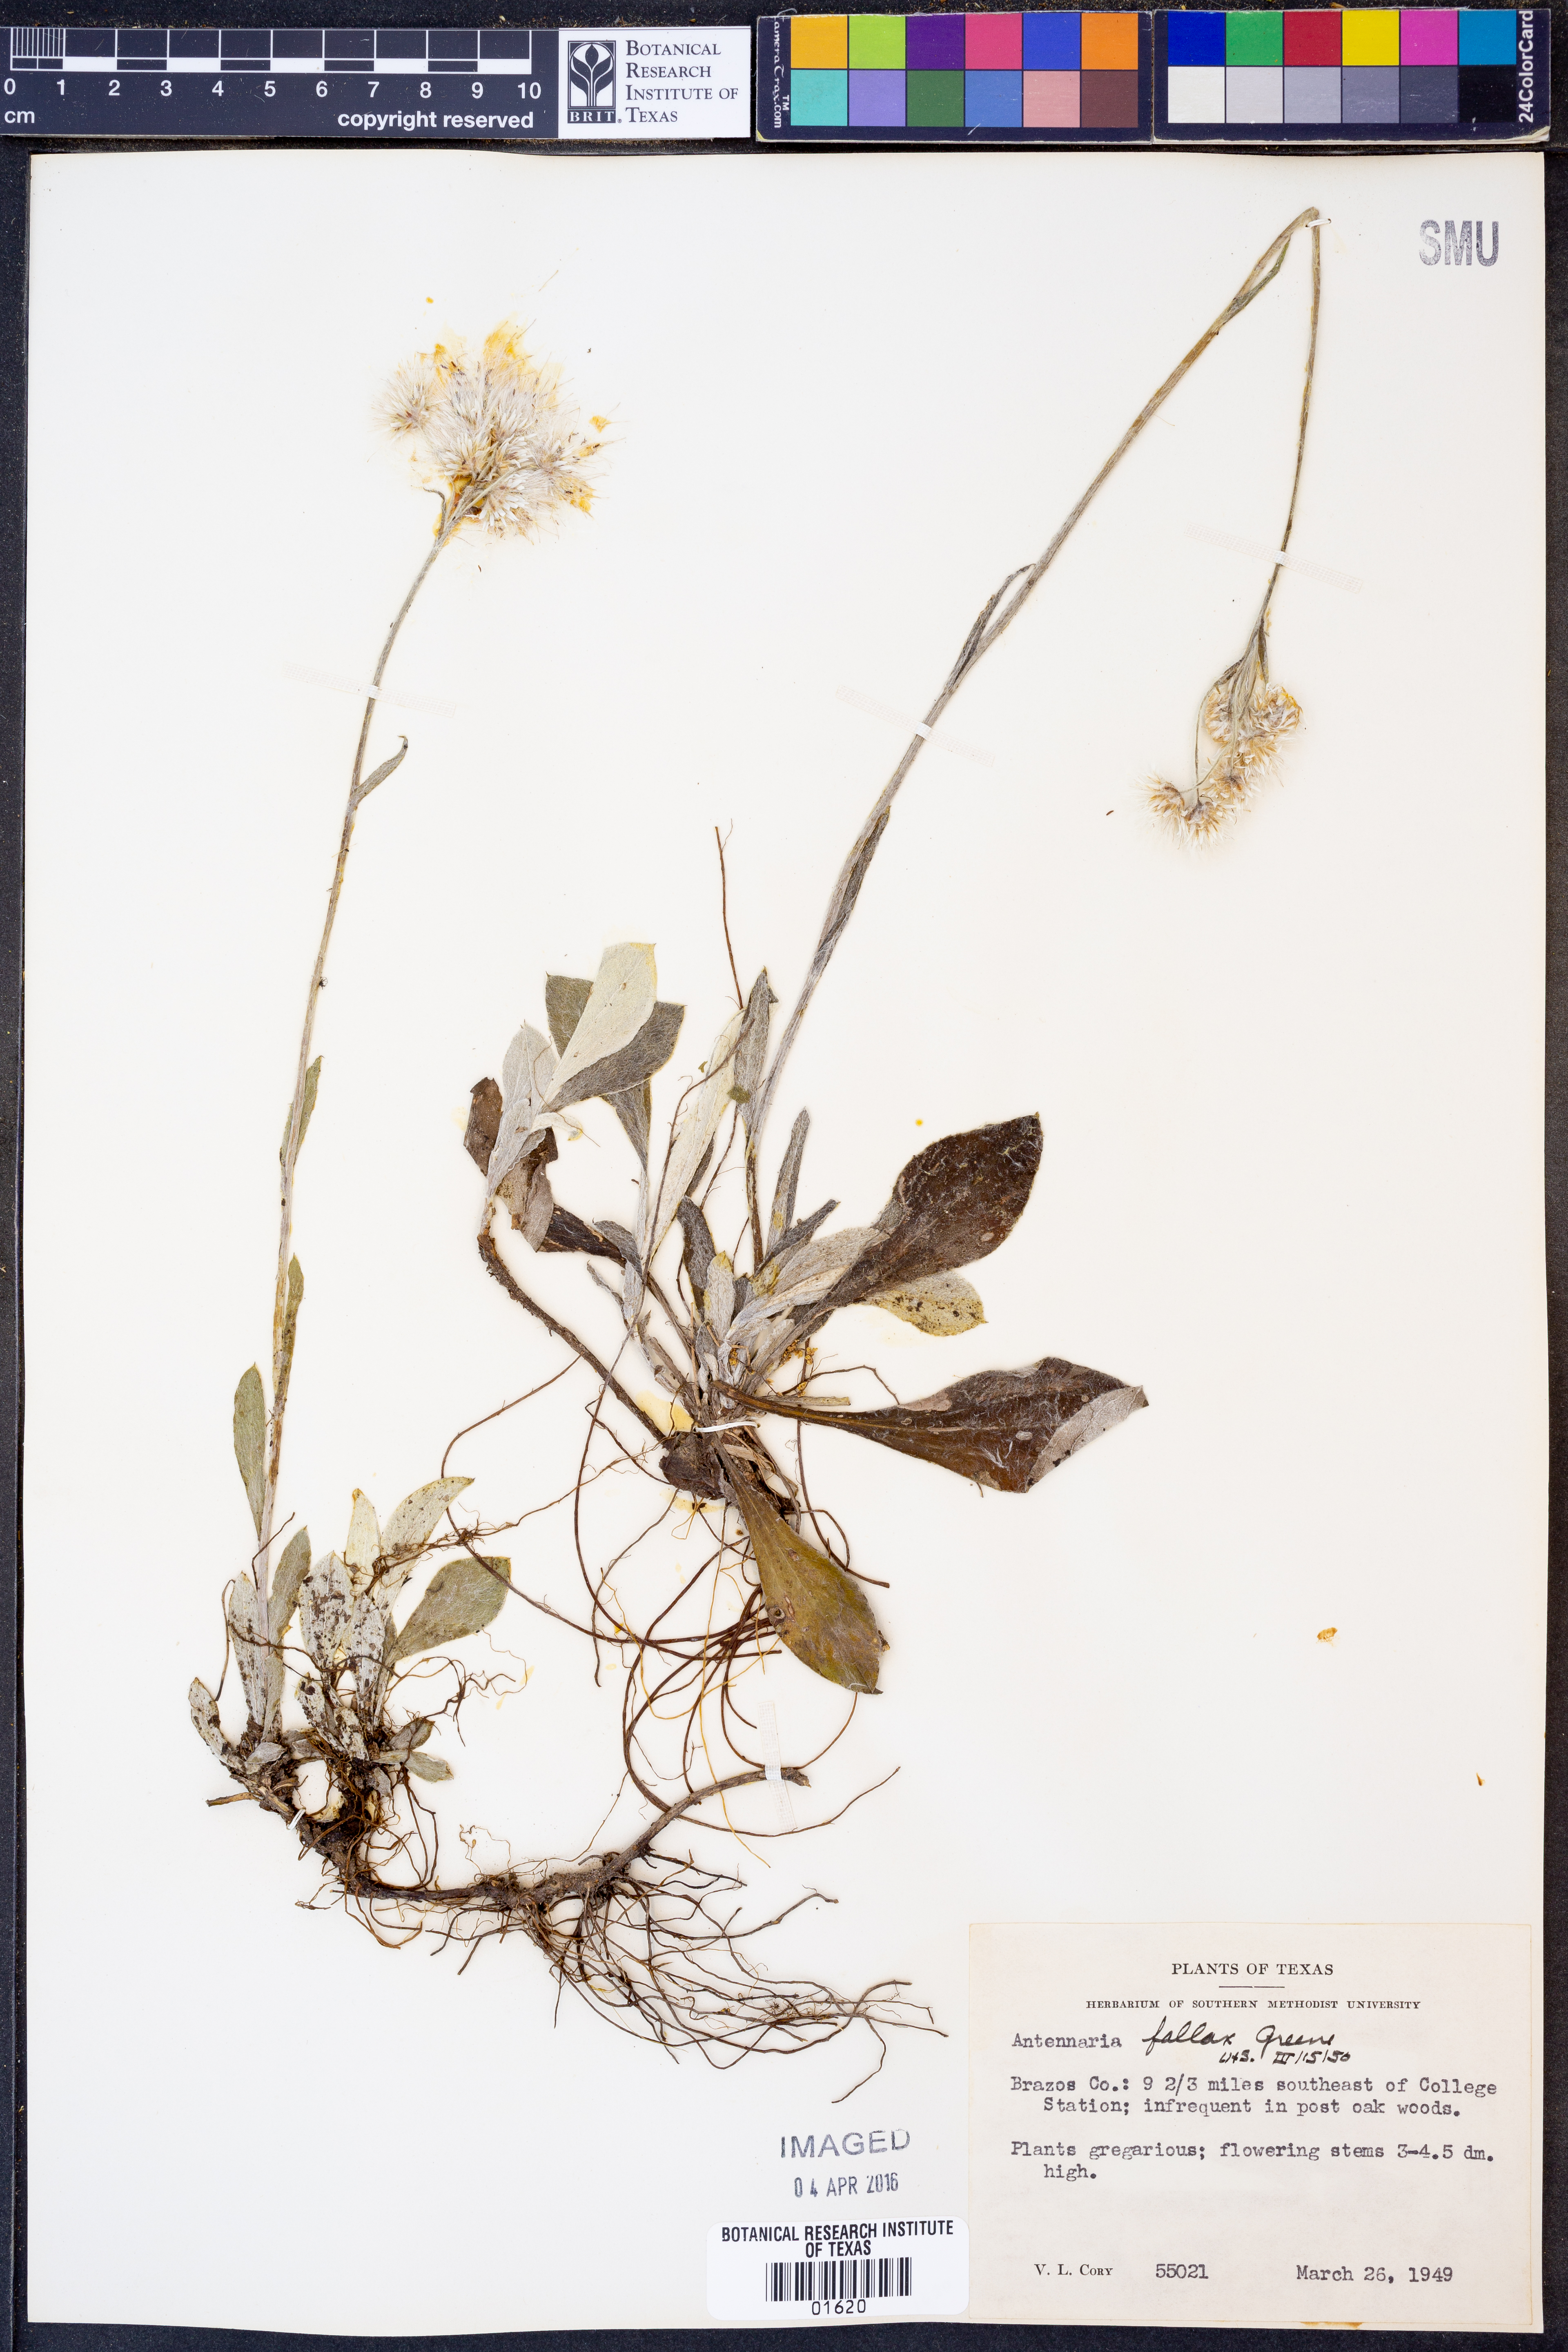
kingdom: Plantae
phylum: Tracheophyta
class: Magnoliopsida
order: Asterales
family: Asteraceae
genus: Antennaria
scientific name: Antennaria parlinii
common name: Parlin's pussytoes
